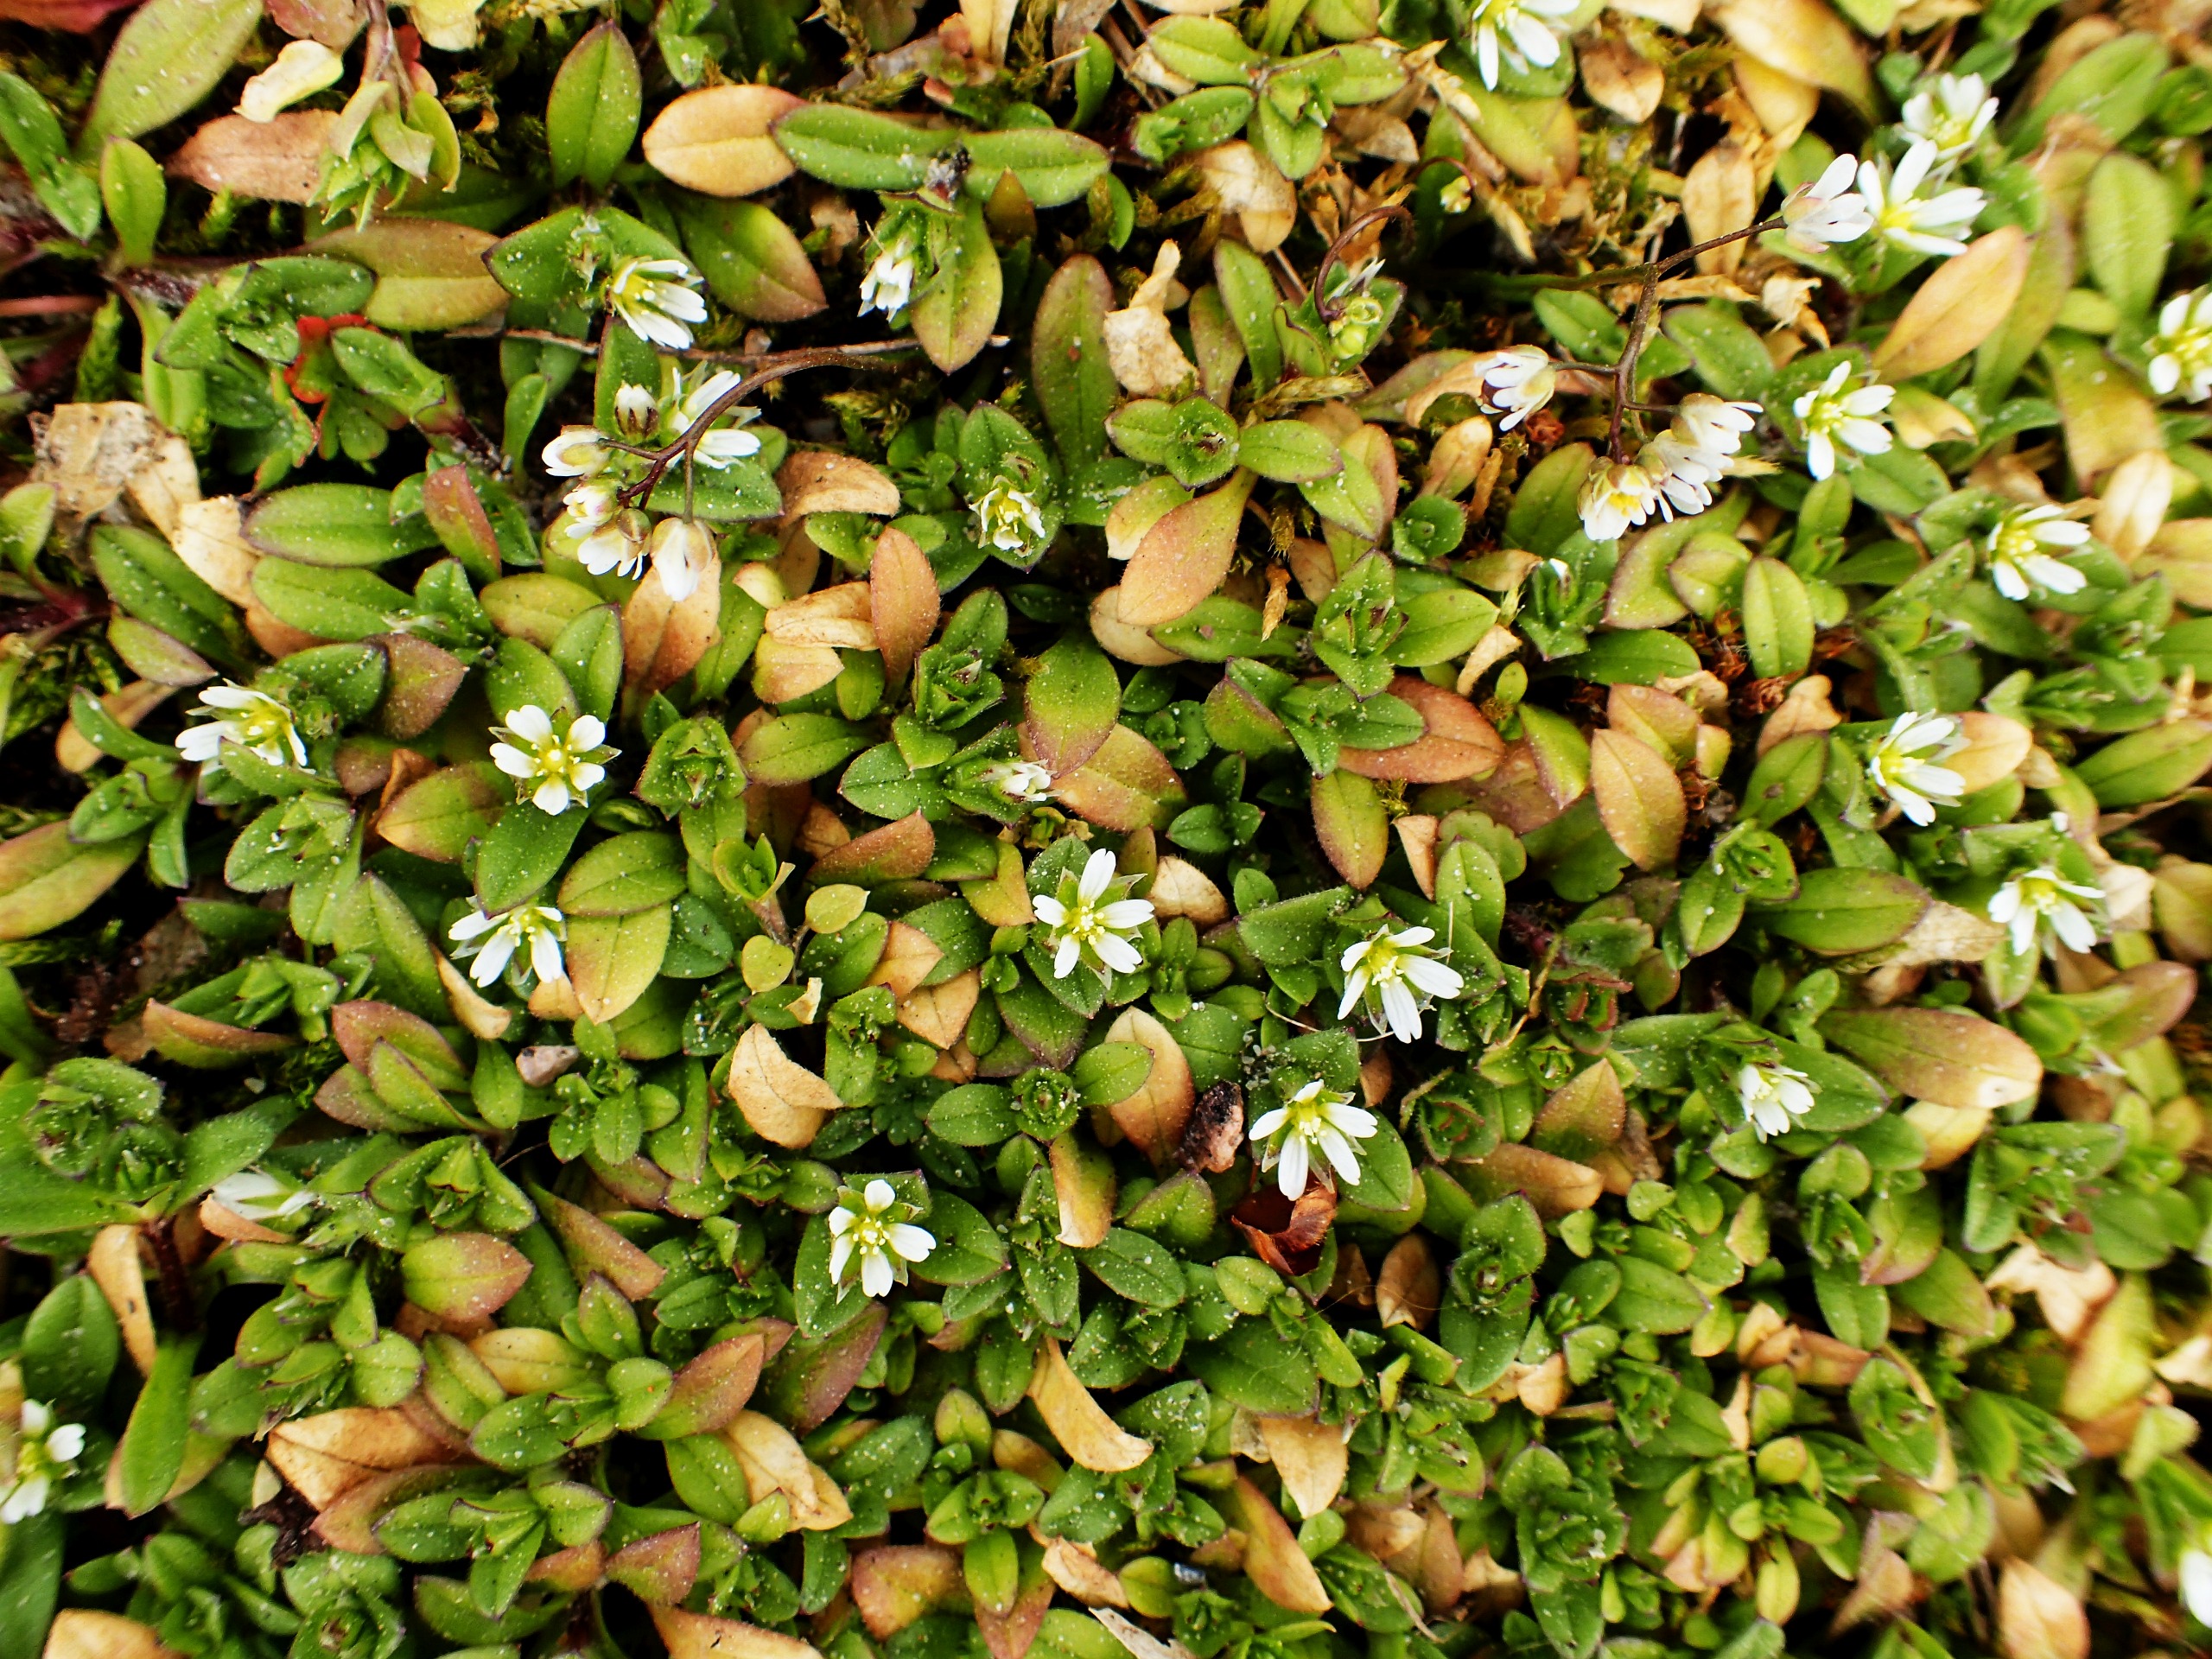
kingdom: Plantae
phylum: Tracheophyta
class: Magnoliopsida
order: Caryophyllales
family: Caryophyllaceae
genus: Cerastium
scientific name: Cerastium semidecandrum
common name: Femhannet hønsetarm
